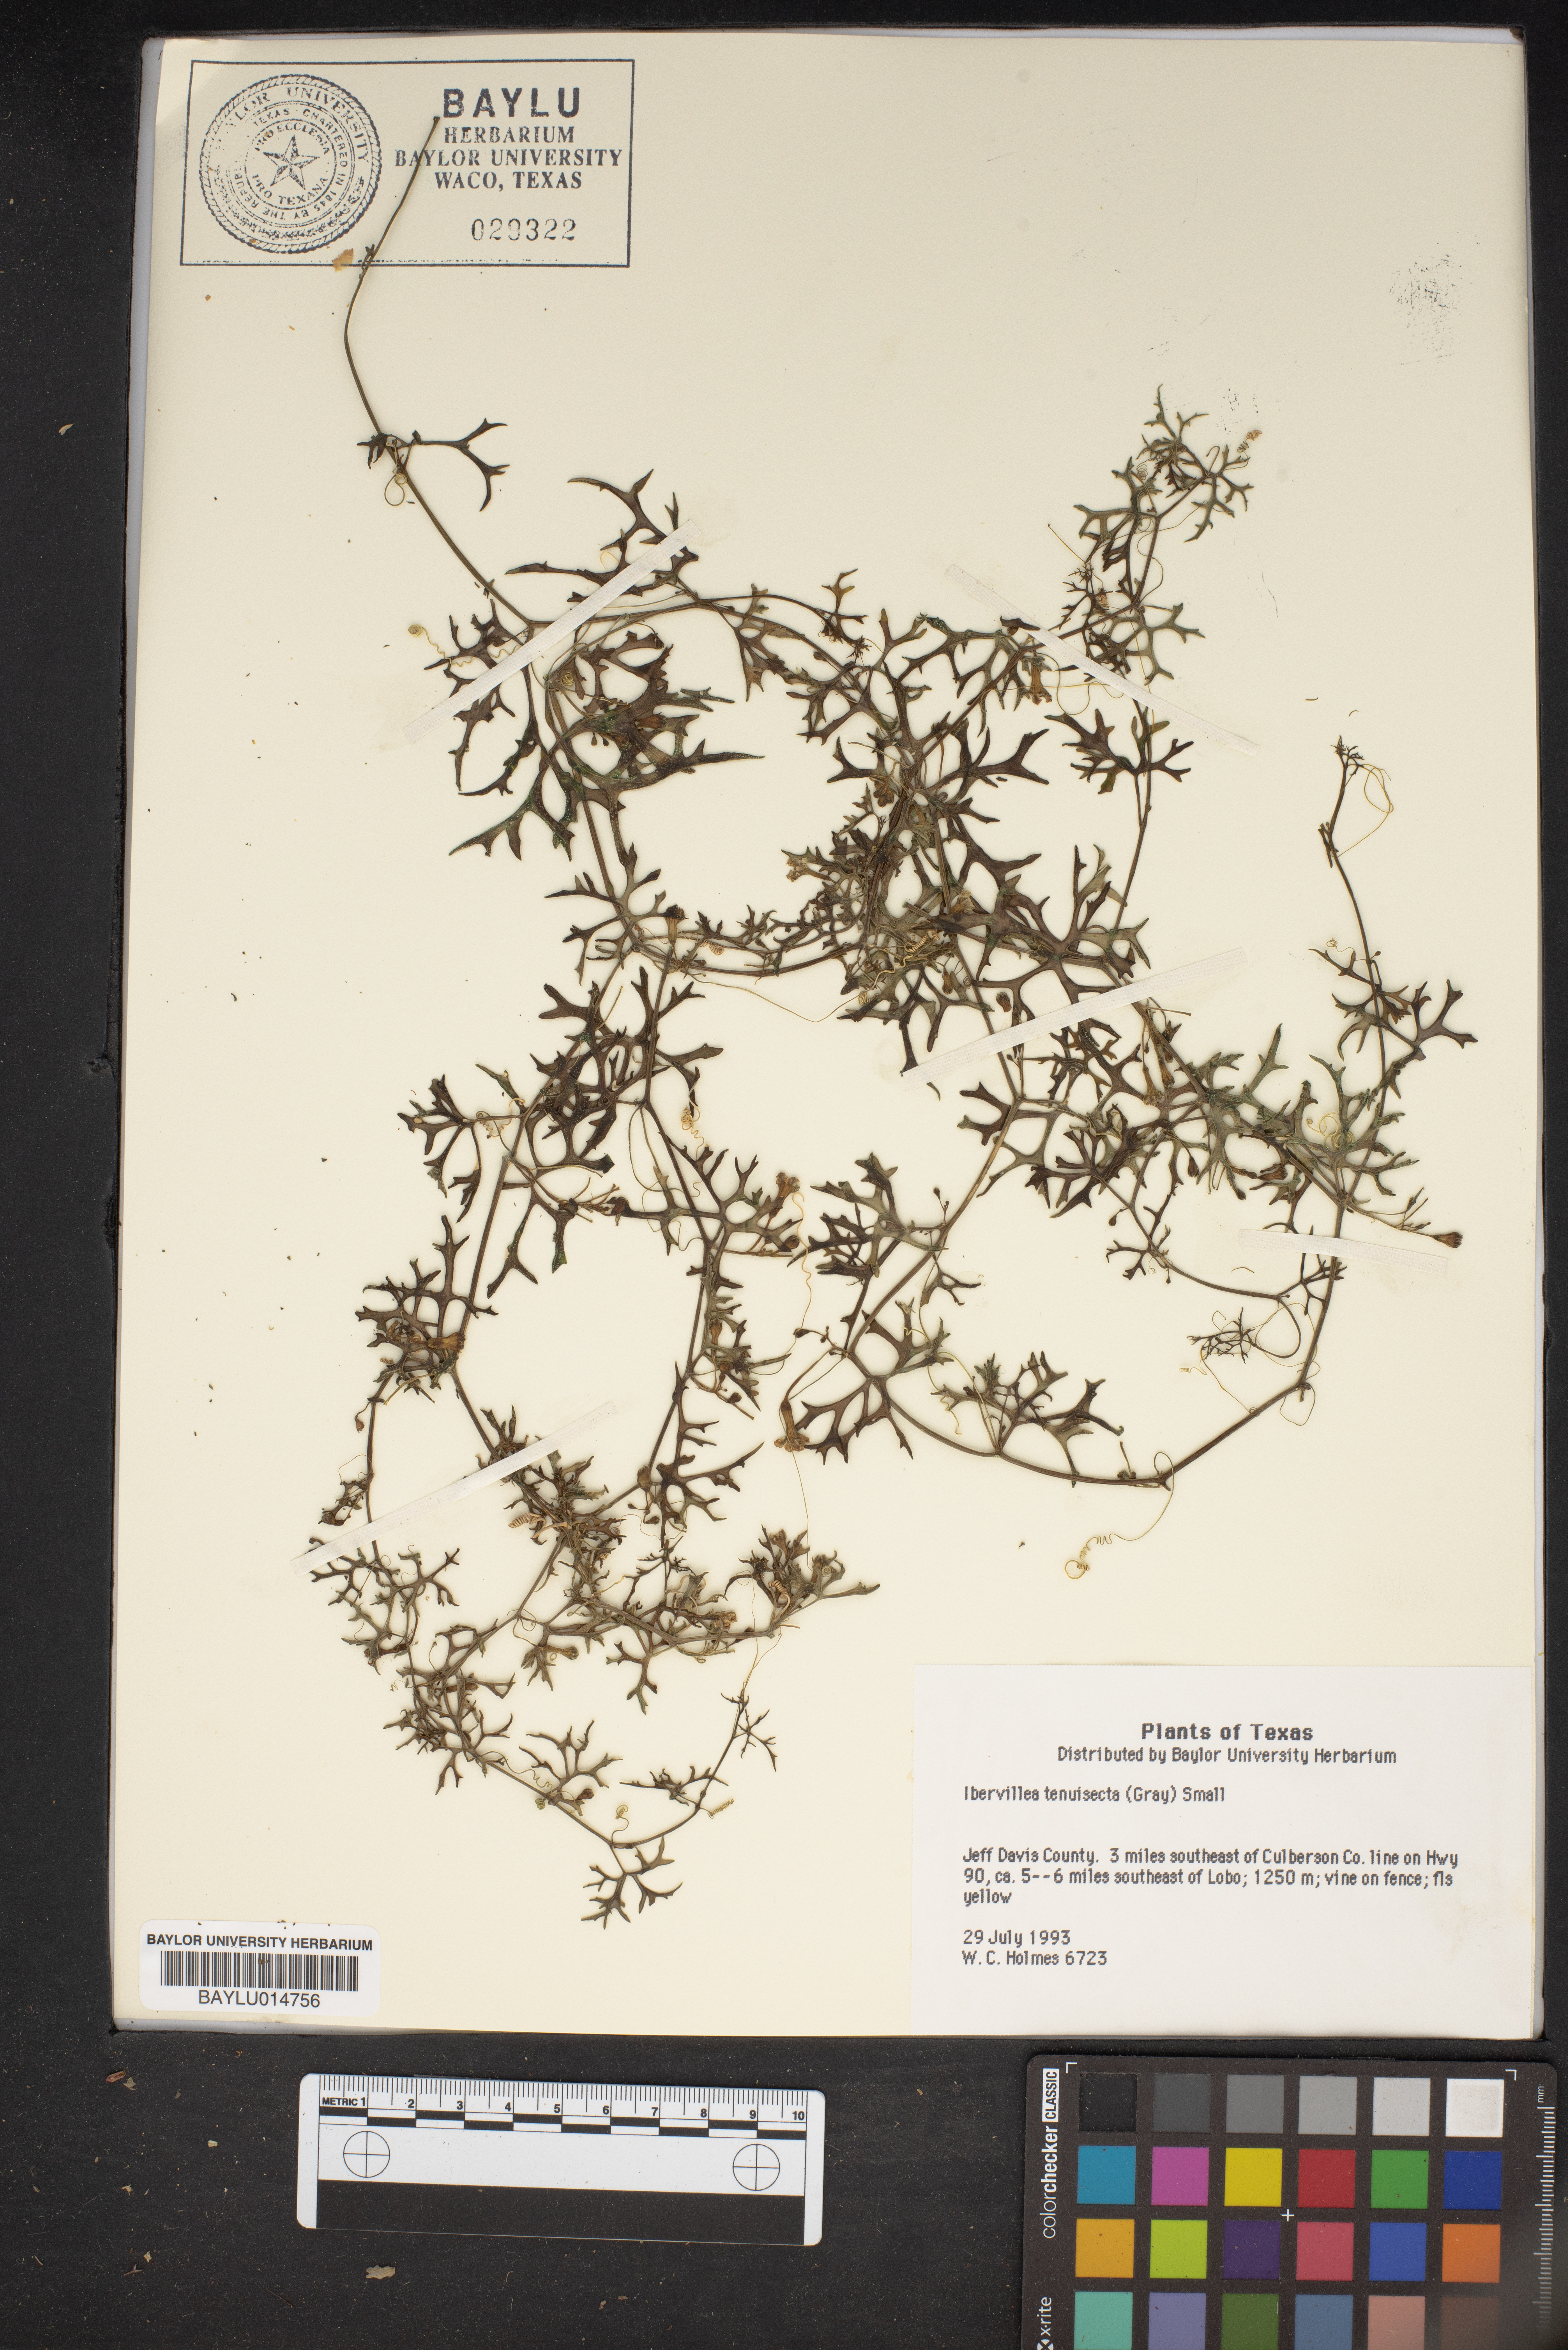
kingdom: Plantae
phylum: Tracheophyta
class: Magnoliopsida
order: Cucurbitales
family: Cucurbitaceae
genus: Ibervillea
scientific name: Ibervillea tenuisecta
